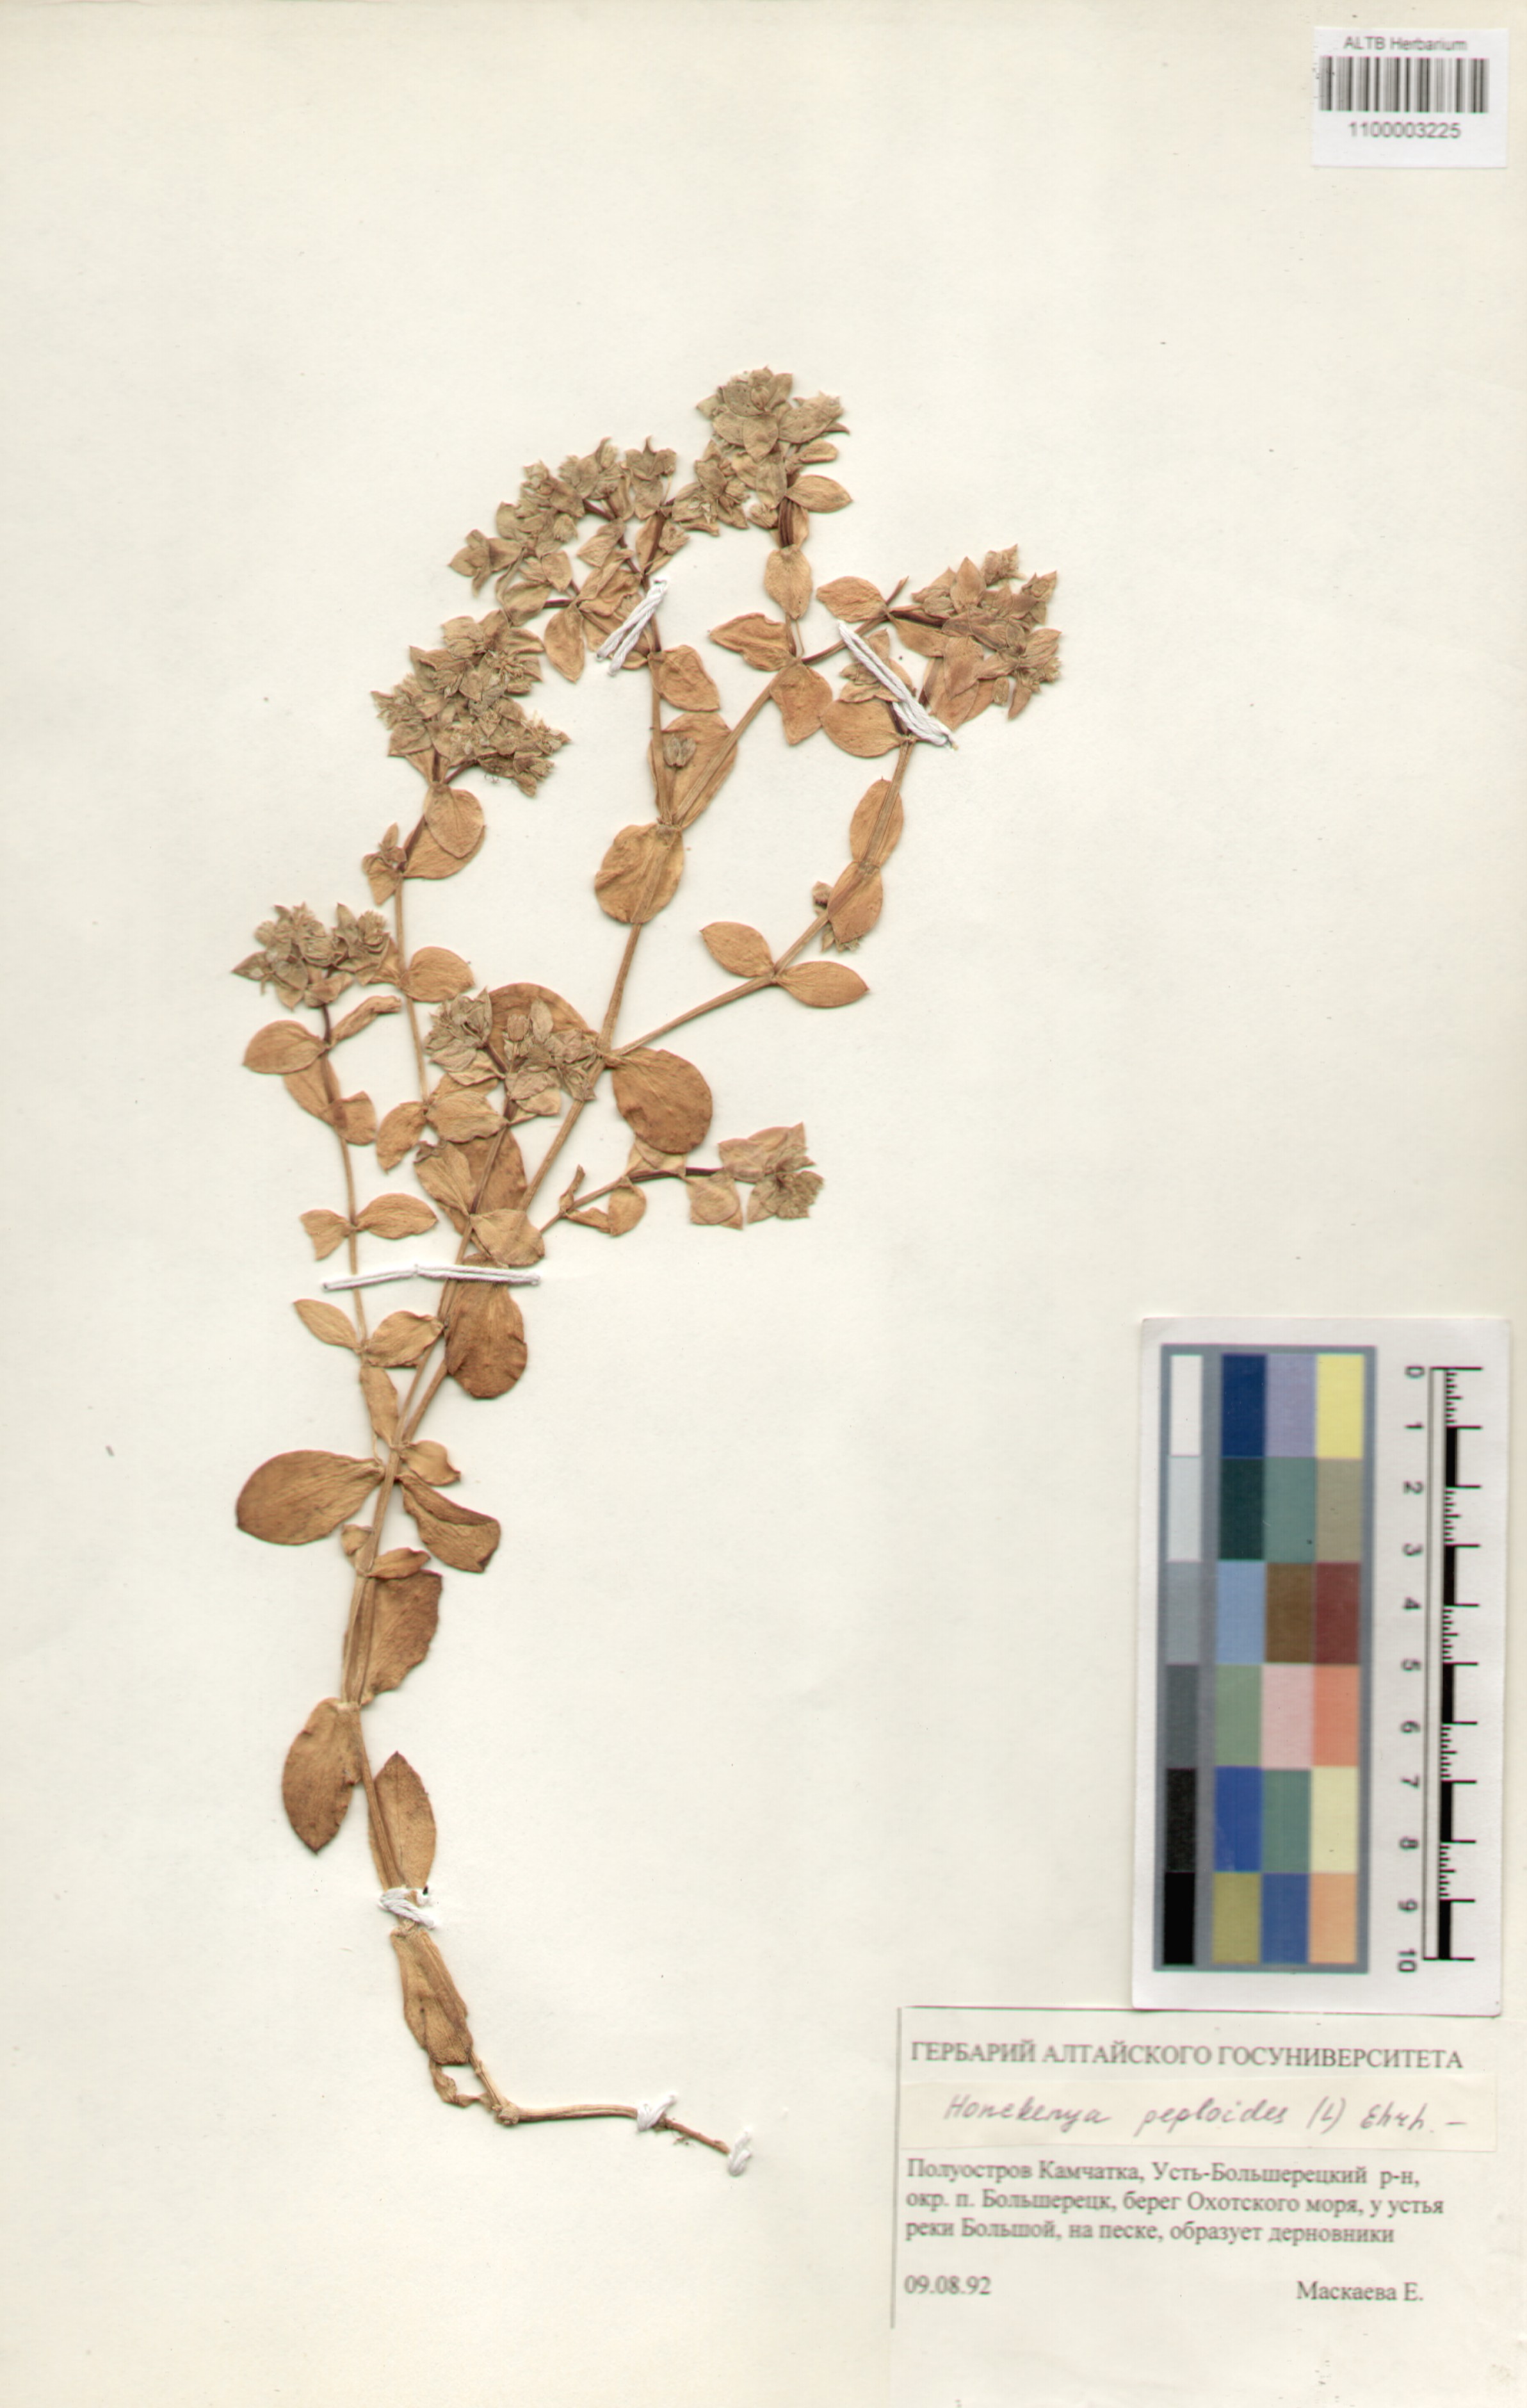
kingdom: Plantae
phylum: Tracheophyta
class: Magnoliopsida
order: Caryophyllales
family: Caryophyllaceae
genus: Honckenya
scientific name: Honckenya peploides
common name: Sea sandwort
